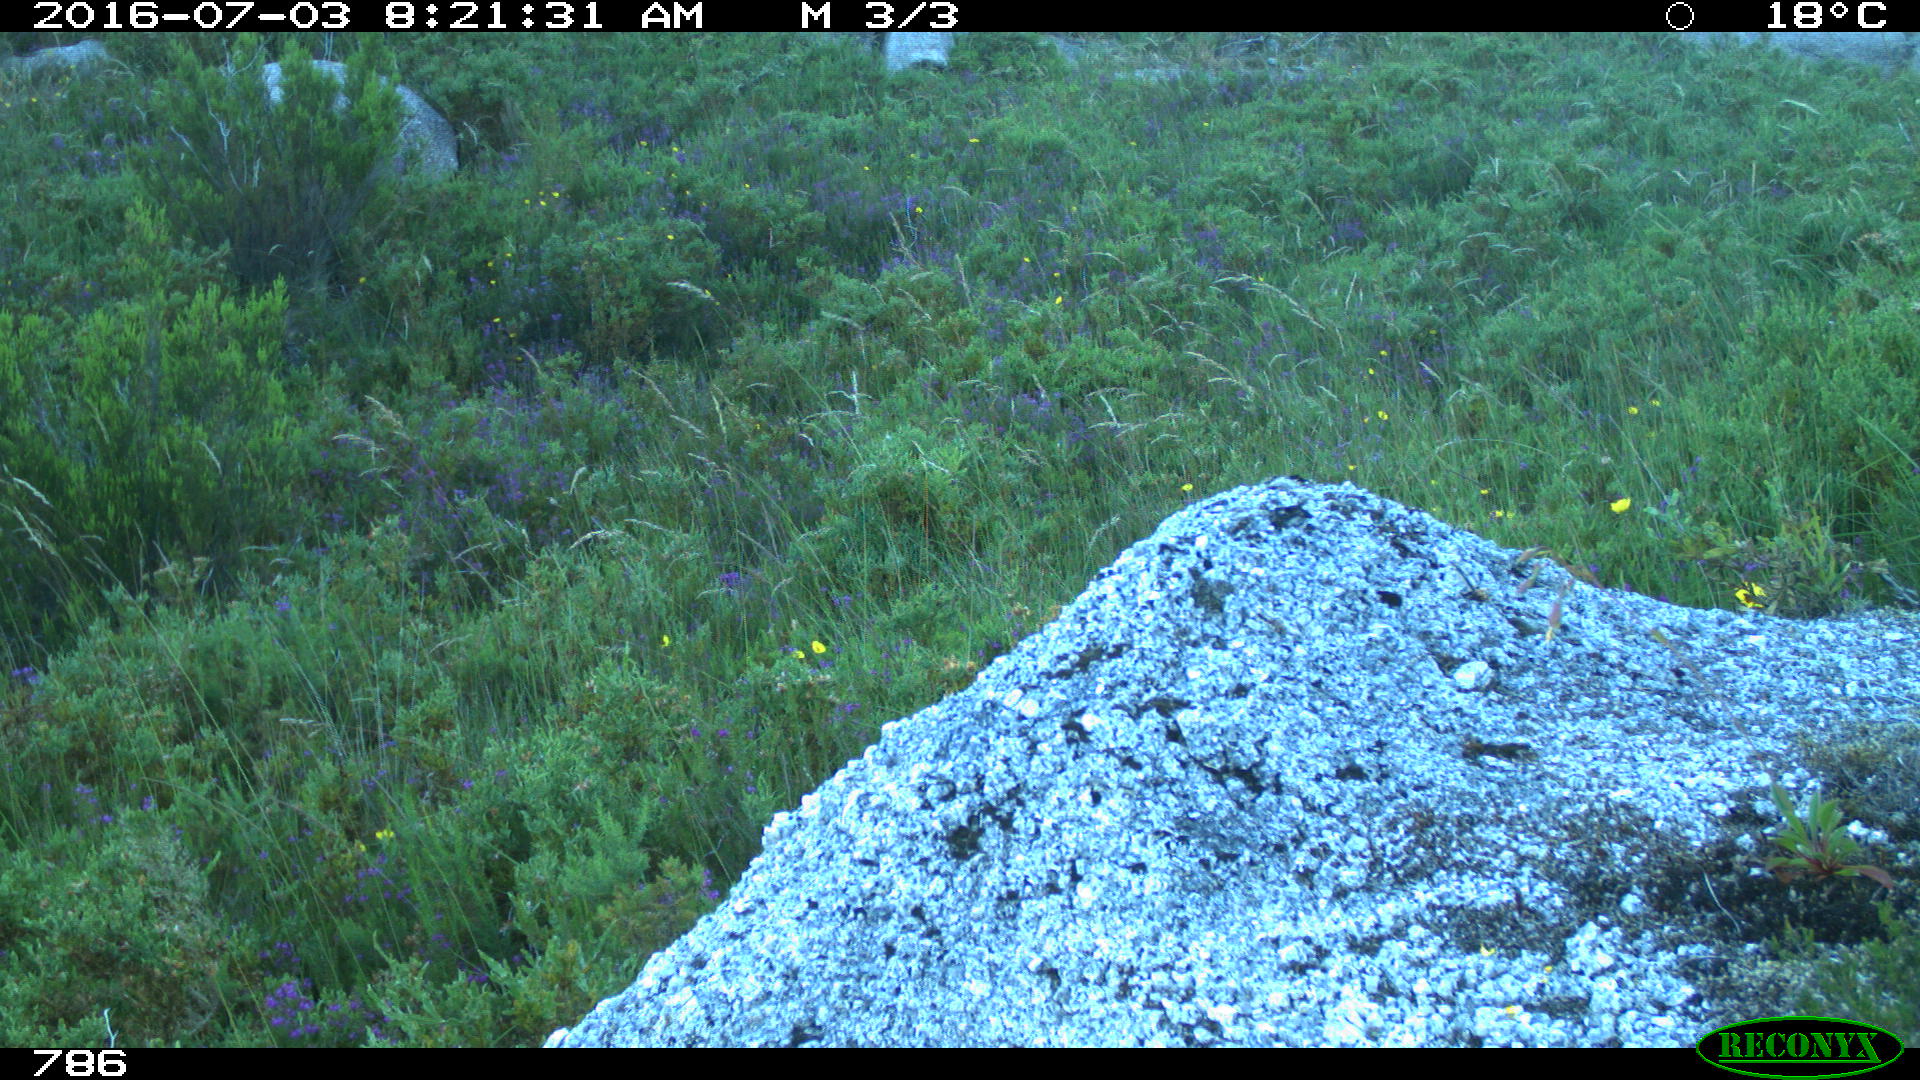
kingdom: Animalia
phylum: Chordata
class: Mammalia
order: Artiodactyla
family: Cervidae
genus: Capreolus
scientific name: Capreolus capreolus
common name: Western roe deer
